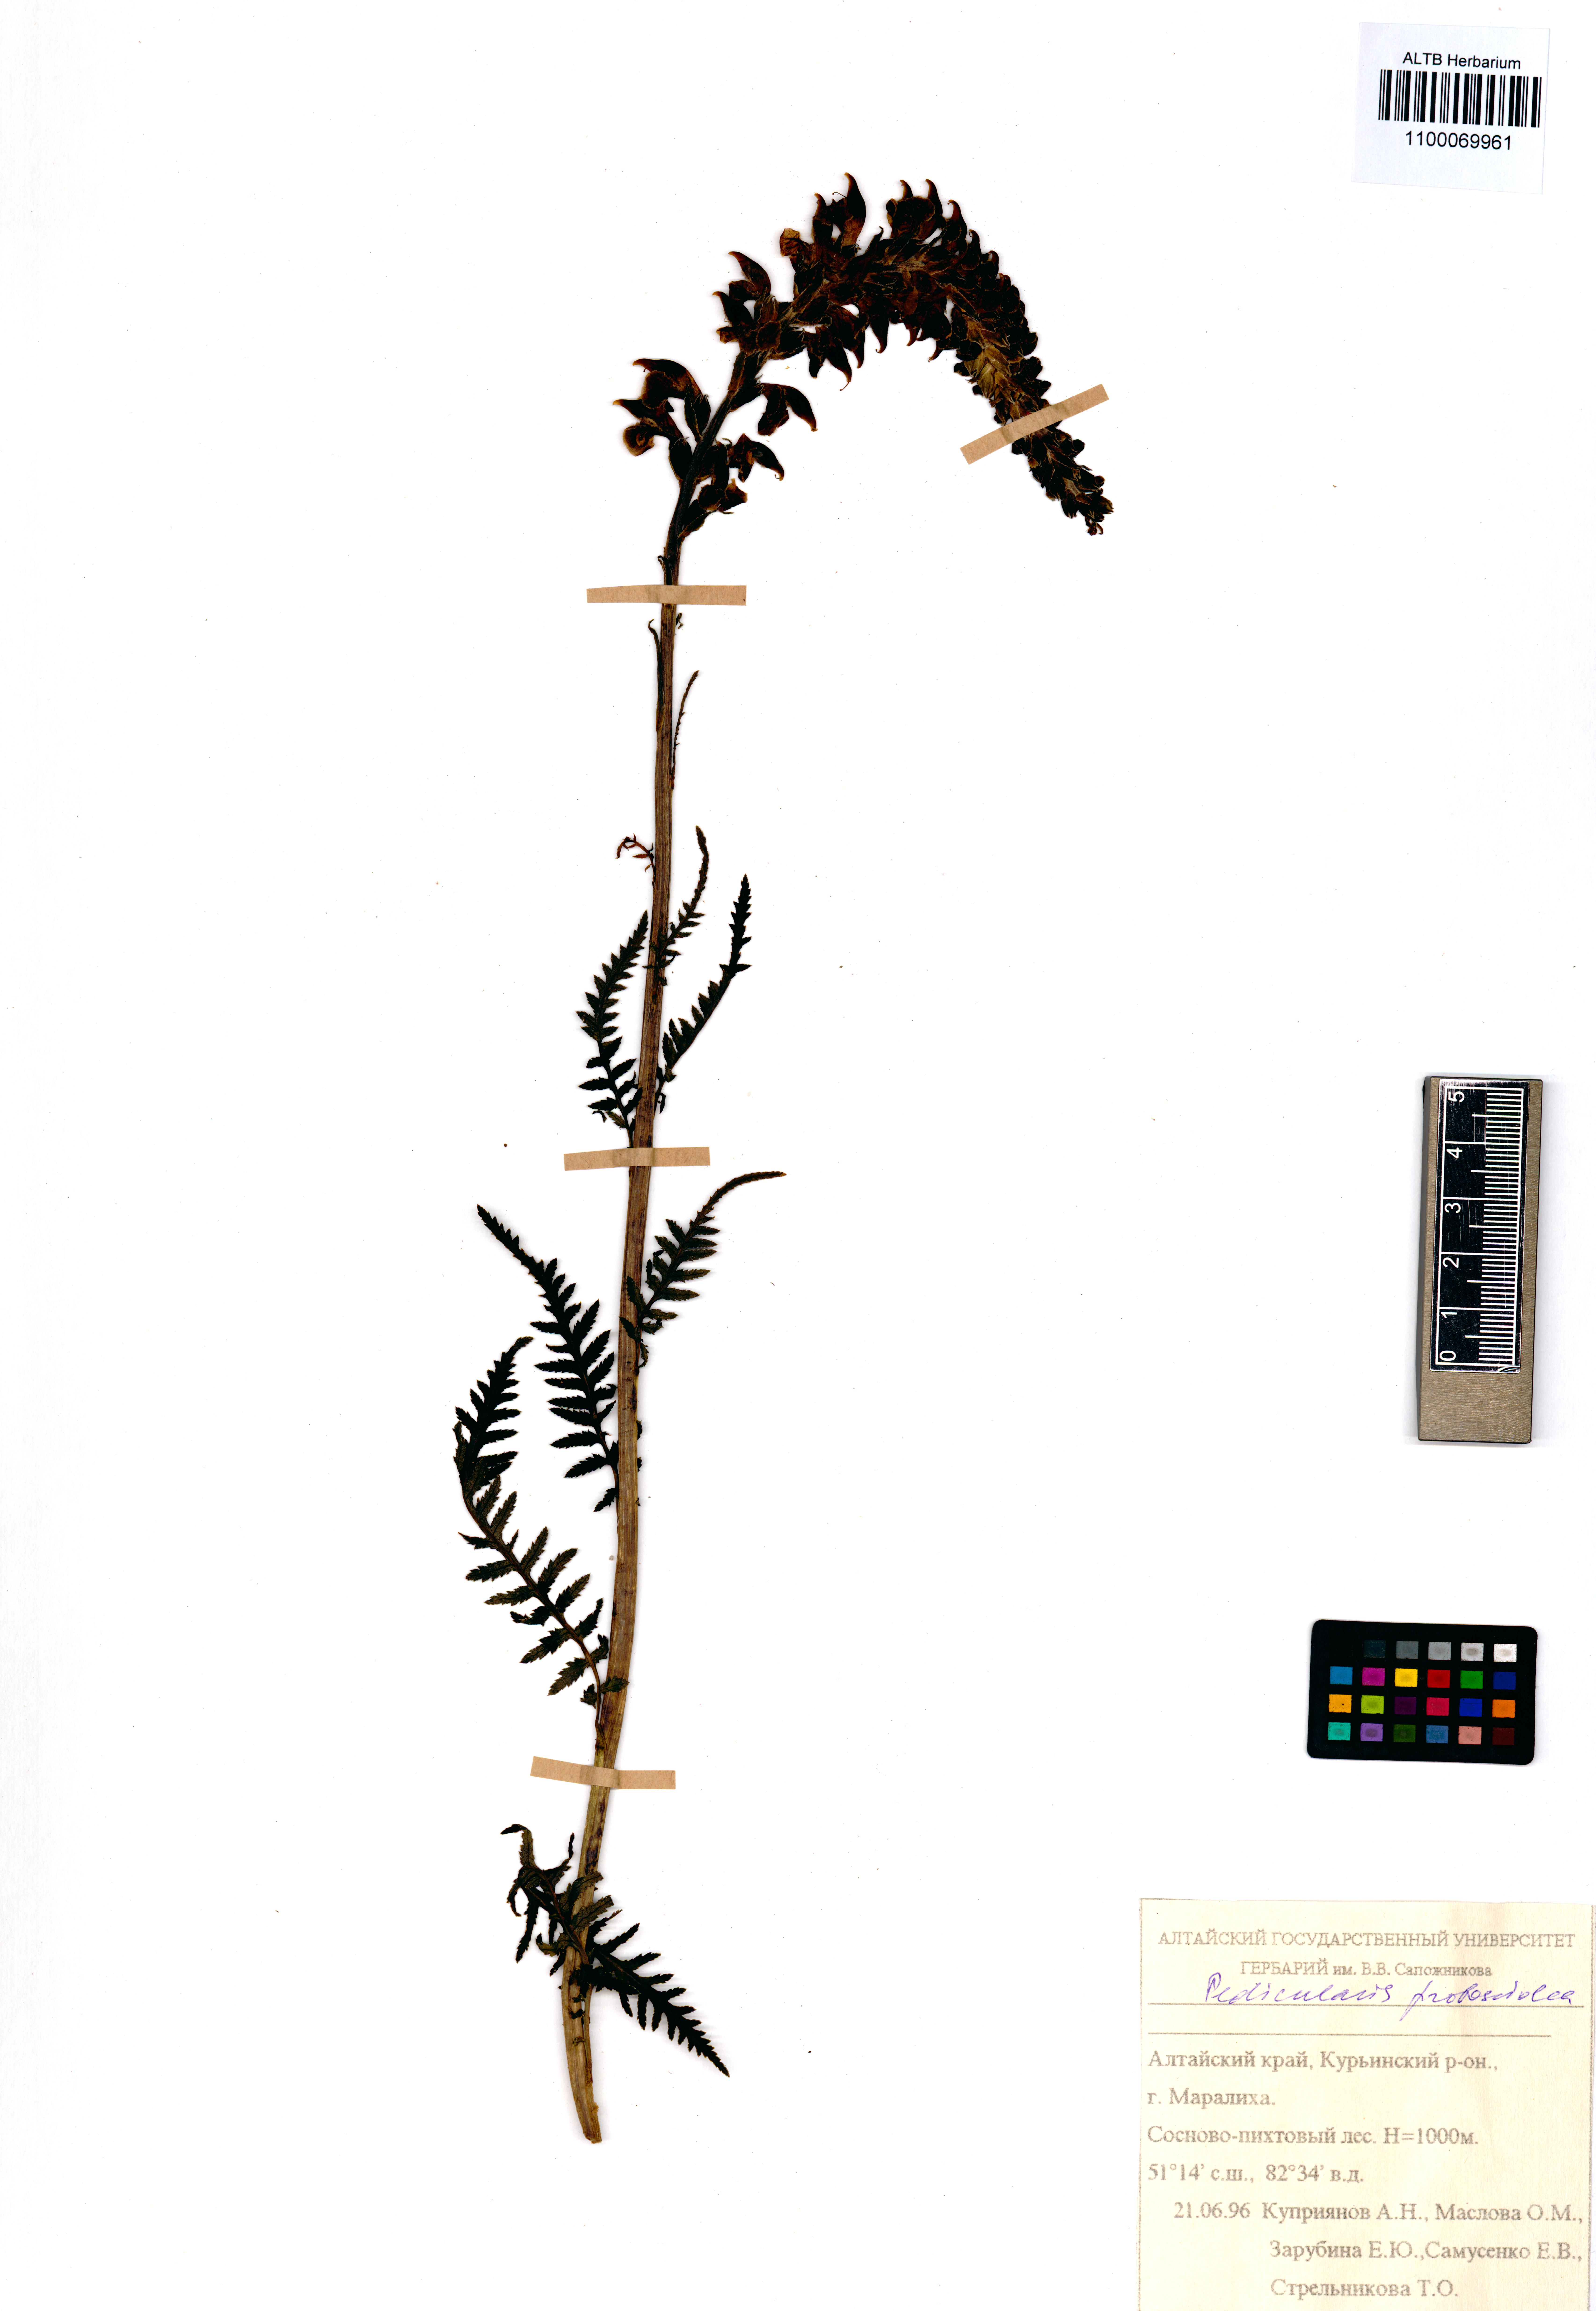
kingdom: Plantae
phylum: Tracheophyta
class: Magnoliopsida
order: Lamiales
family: Orobanchaceae
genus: Pedicularis
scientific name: Pedicularis cenisia
